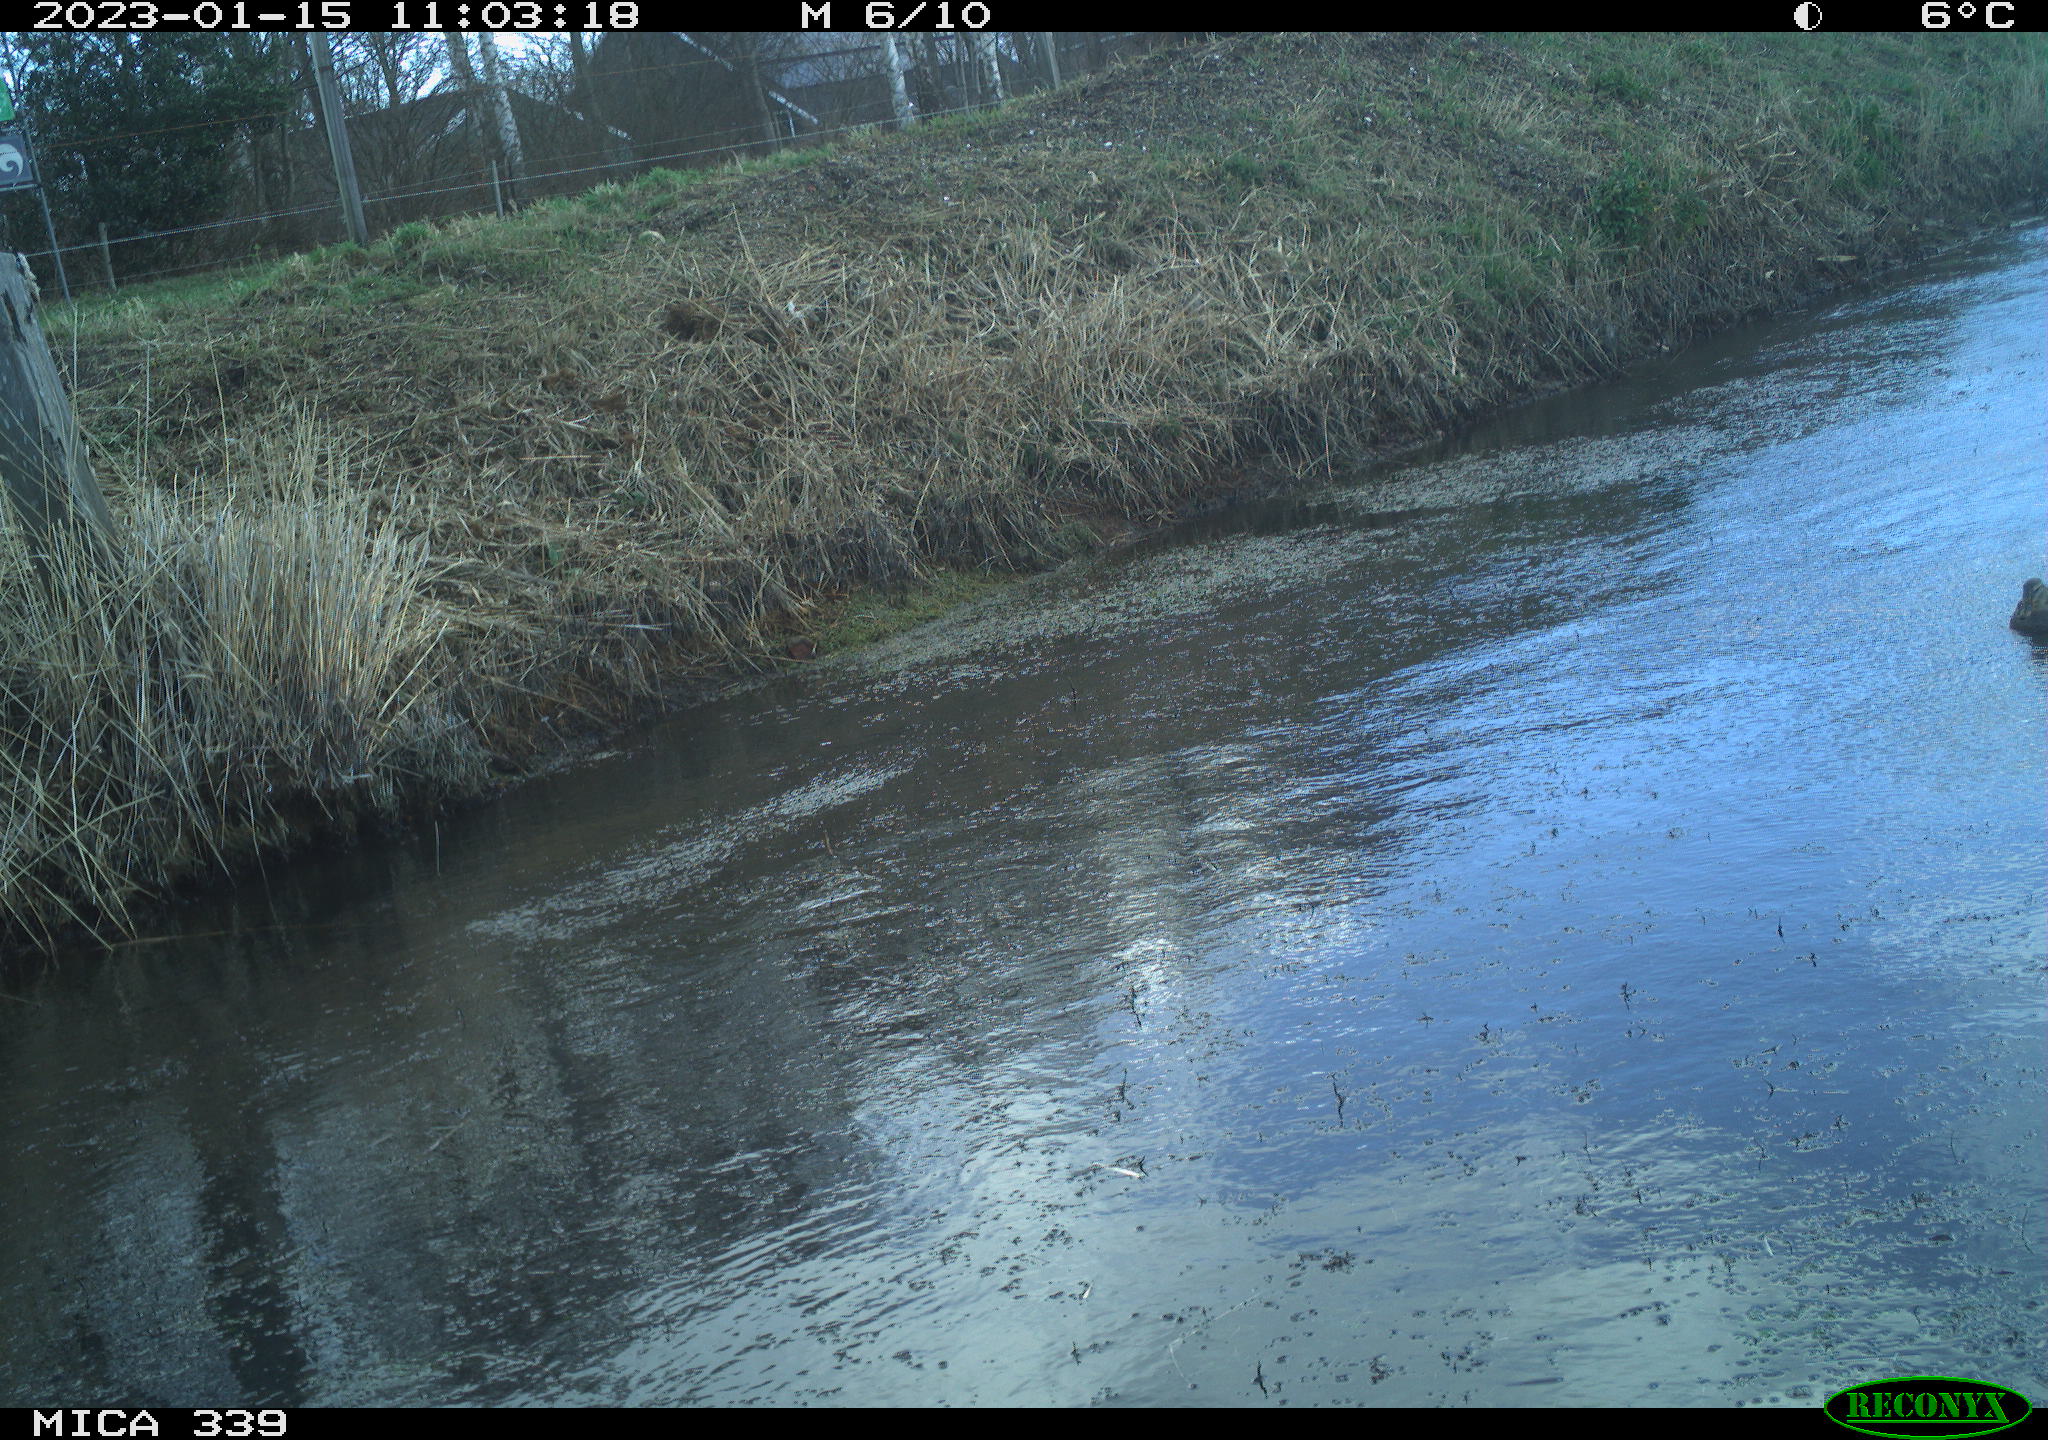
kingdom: Animalia
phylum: Chordata
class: Aves
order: Anseriformes
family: Anatidae
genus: Anas
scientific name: Anas
